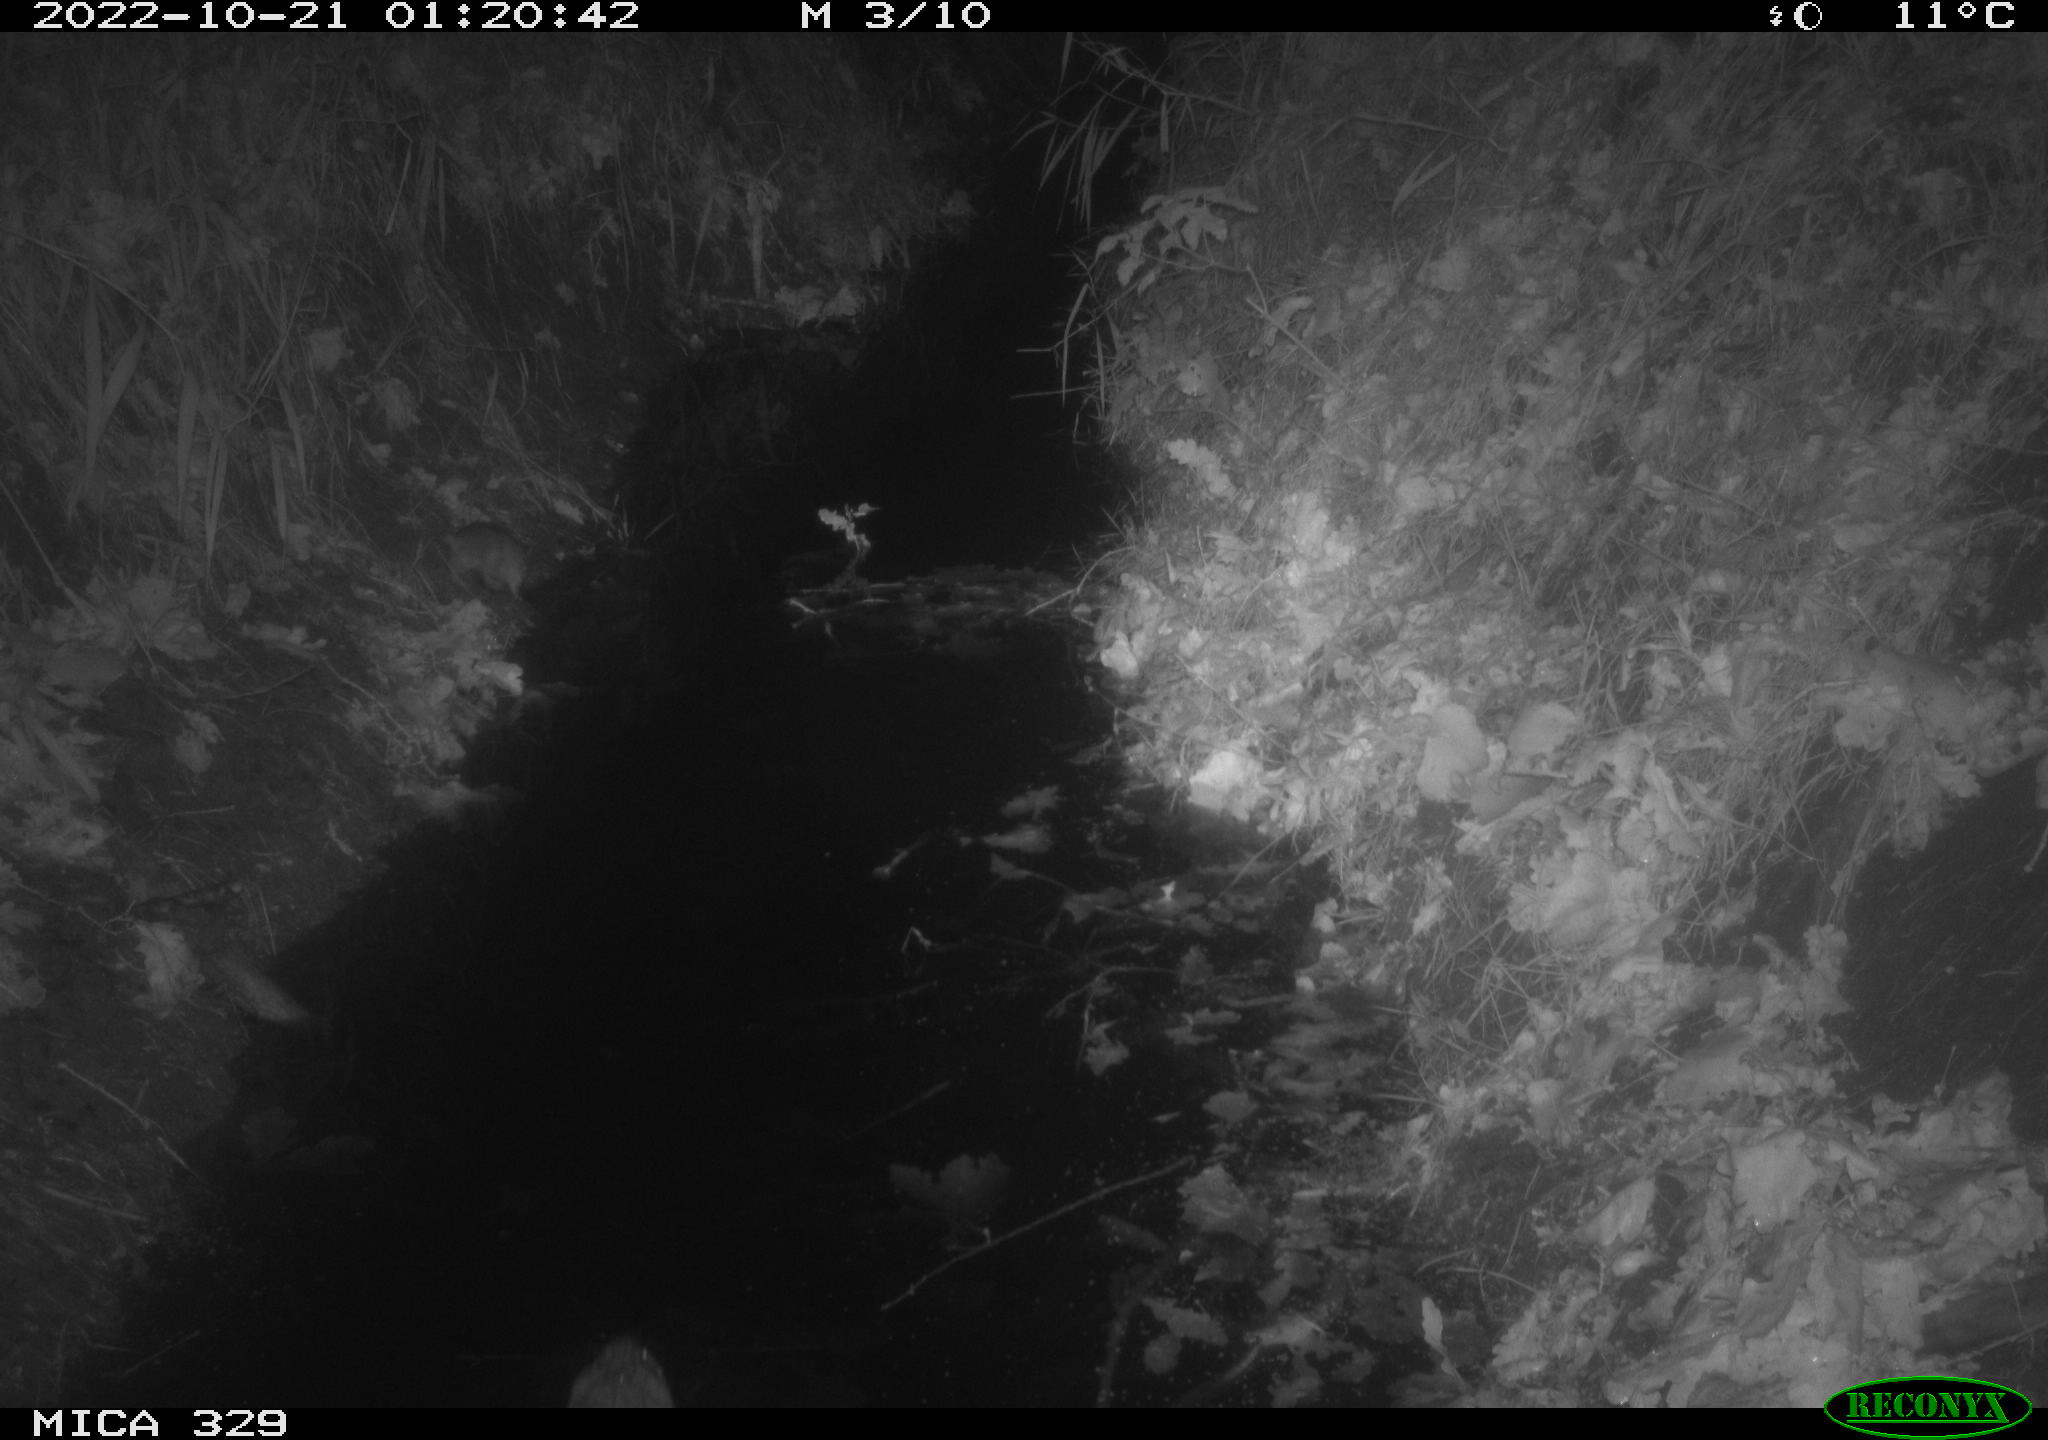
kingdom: Animalia
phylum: Chordata
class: Mammalia
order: Rodentia
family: Cricetidae
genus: Ondatra
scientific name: Ondatra zibethicus
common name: Muskrat
